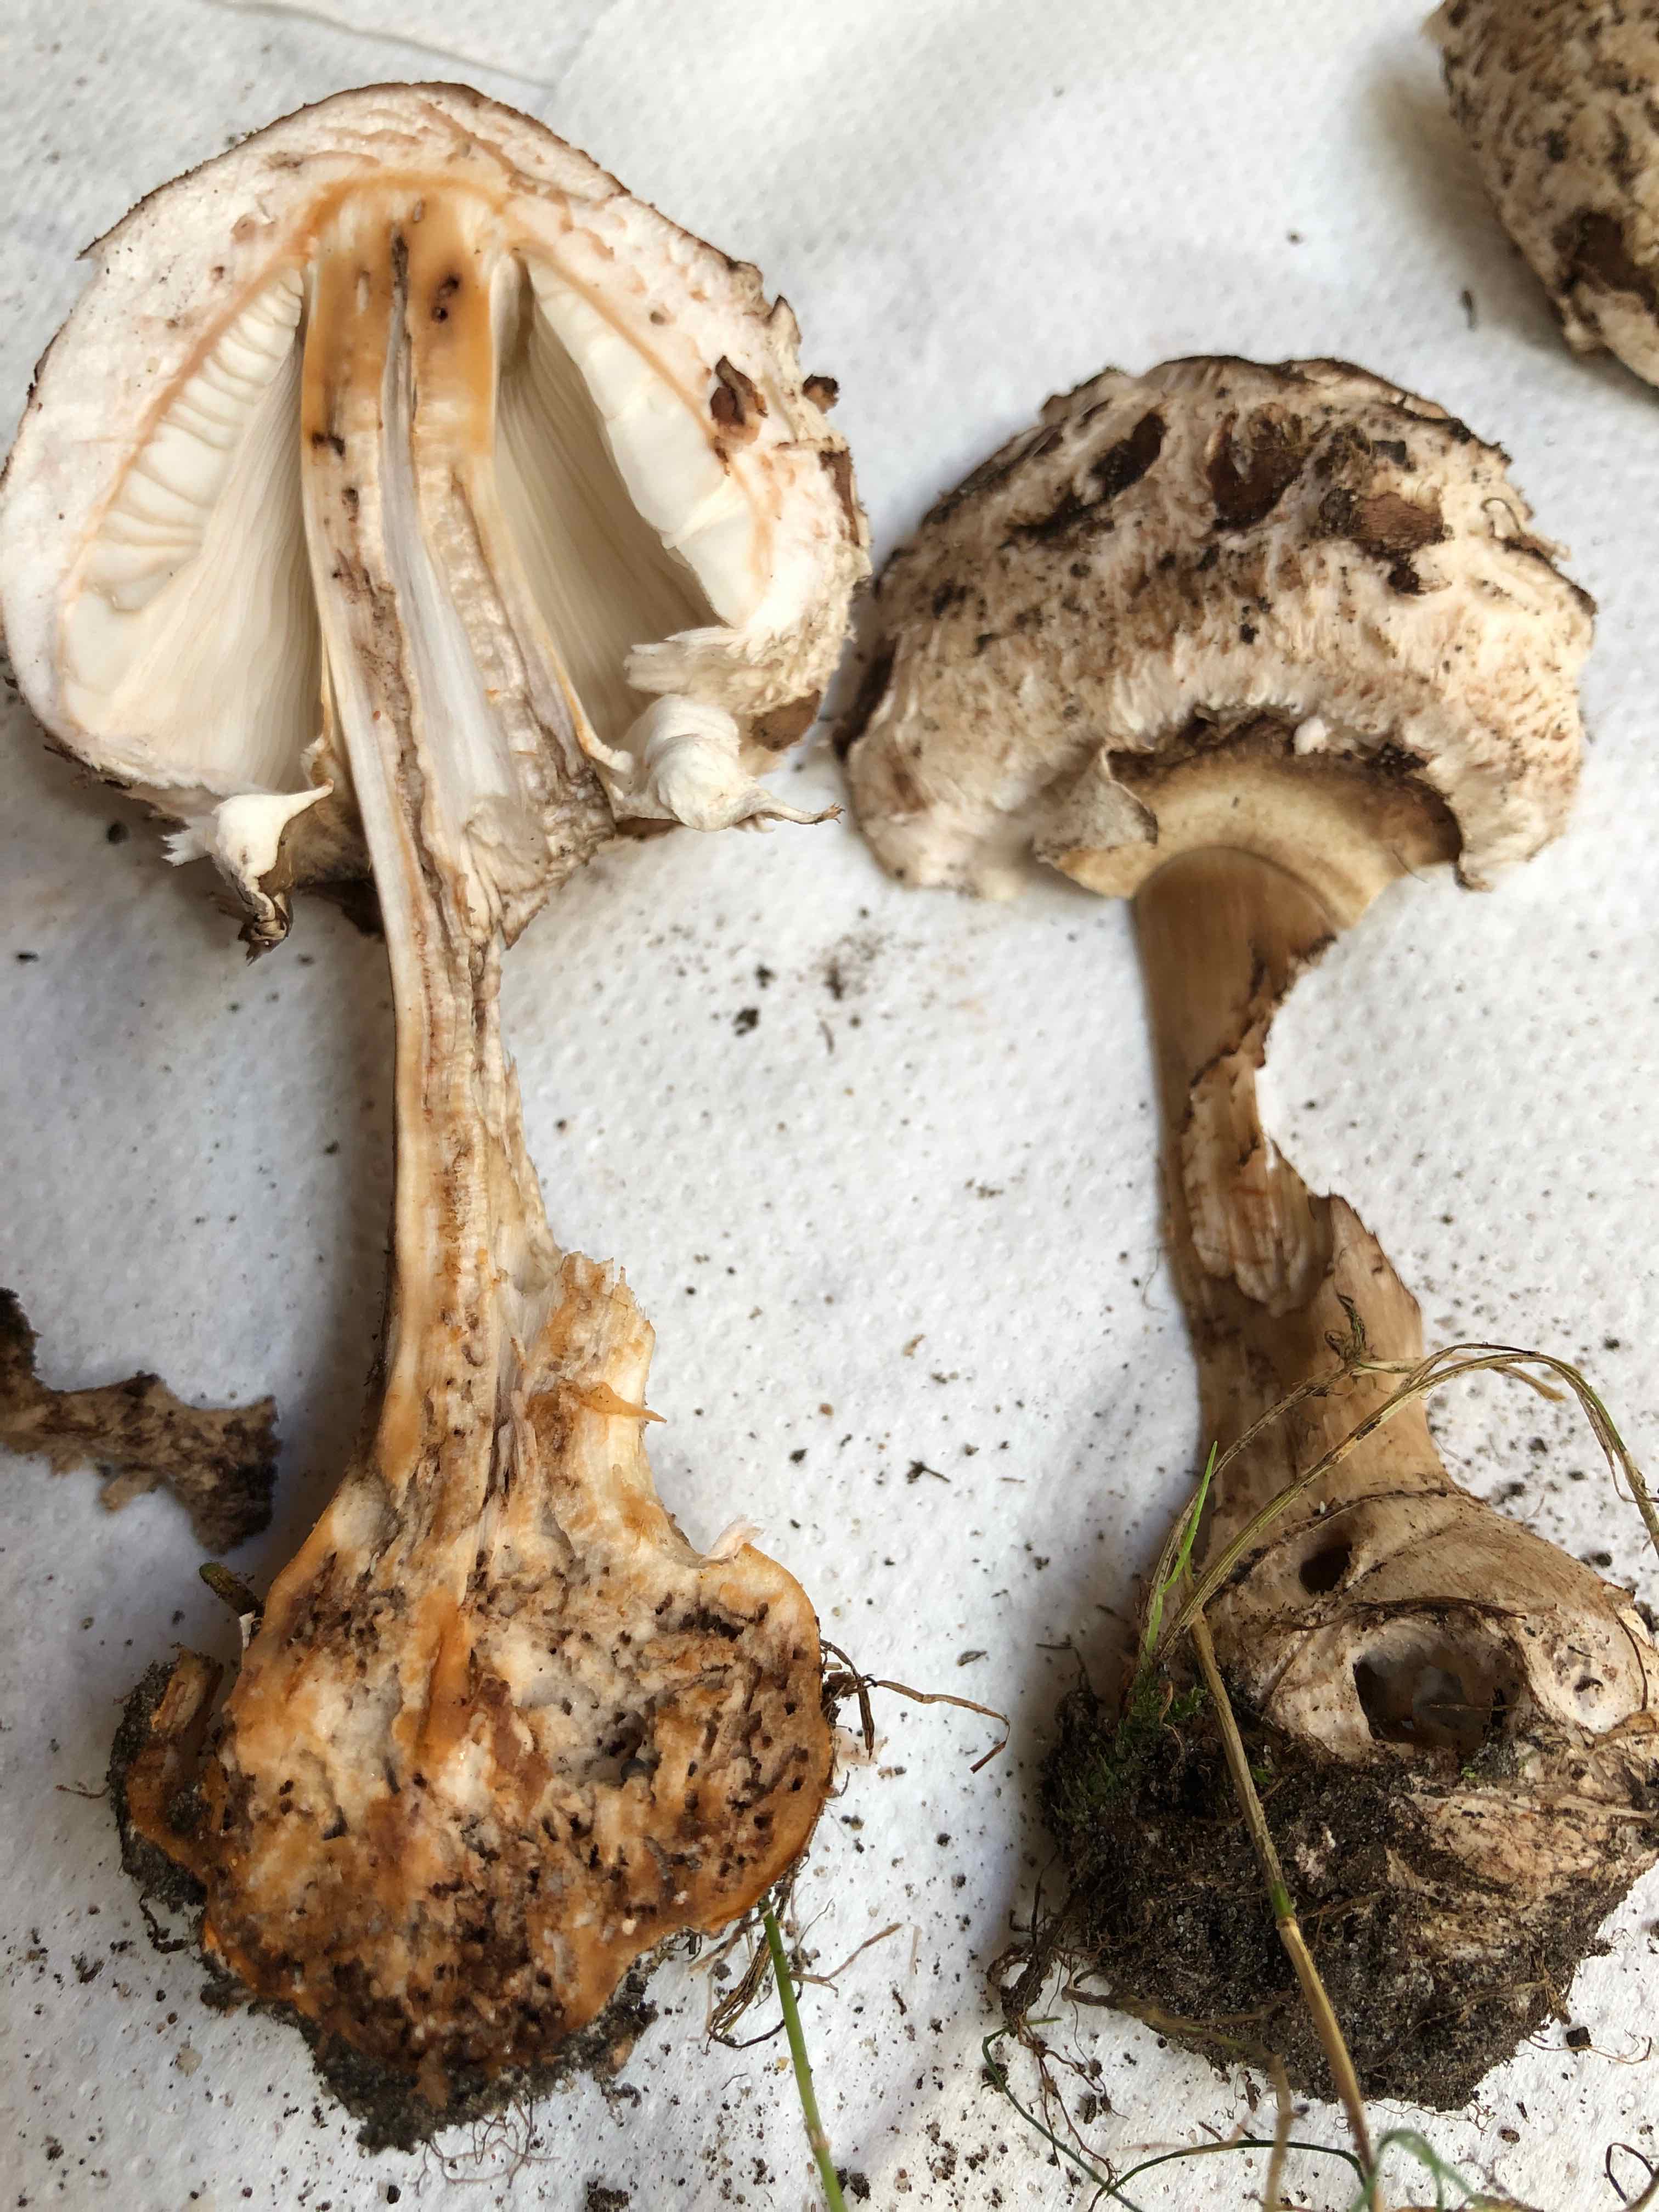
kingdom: Fungi
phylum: Basidiomycota
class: Agaricomycetes
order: Agaricales
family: Agaricaceae
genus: Chlorophyllum
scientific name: Chlorophyllum brunneum
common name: giftig rabarberhat
